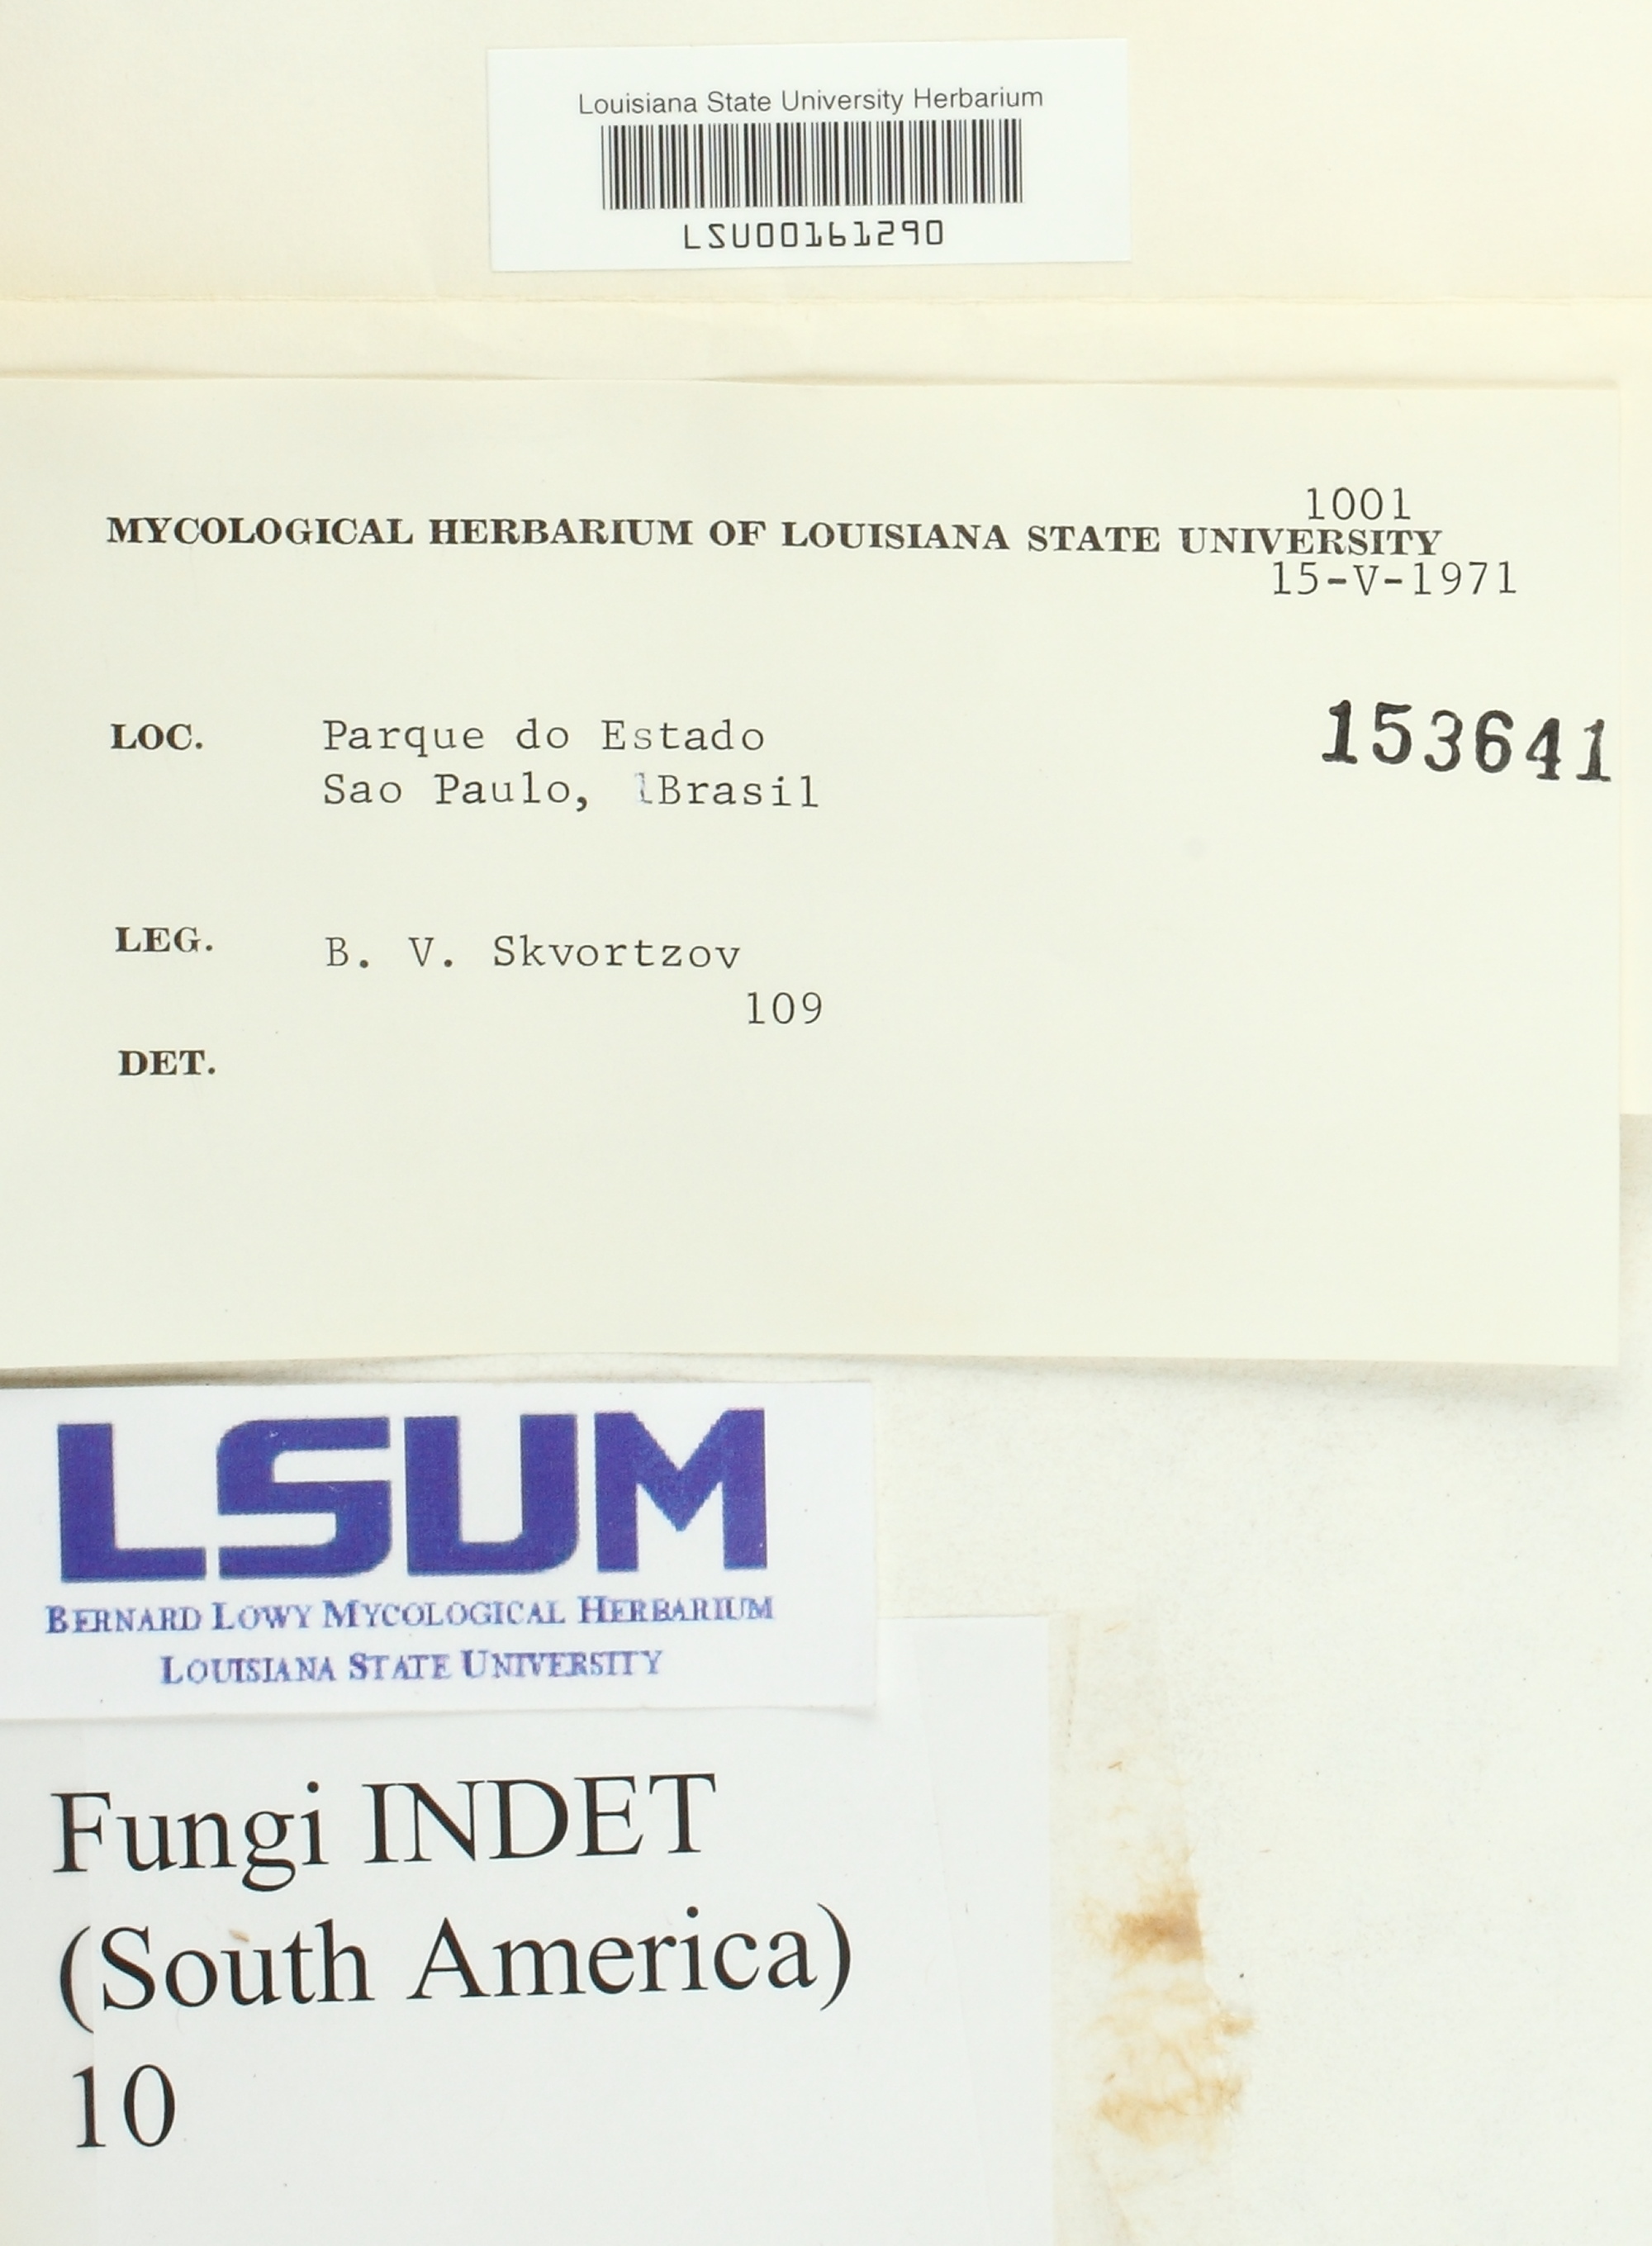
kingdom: Fungi
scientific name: Fungi
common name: Fungi
